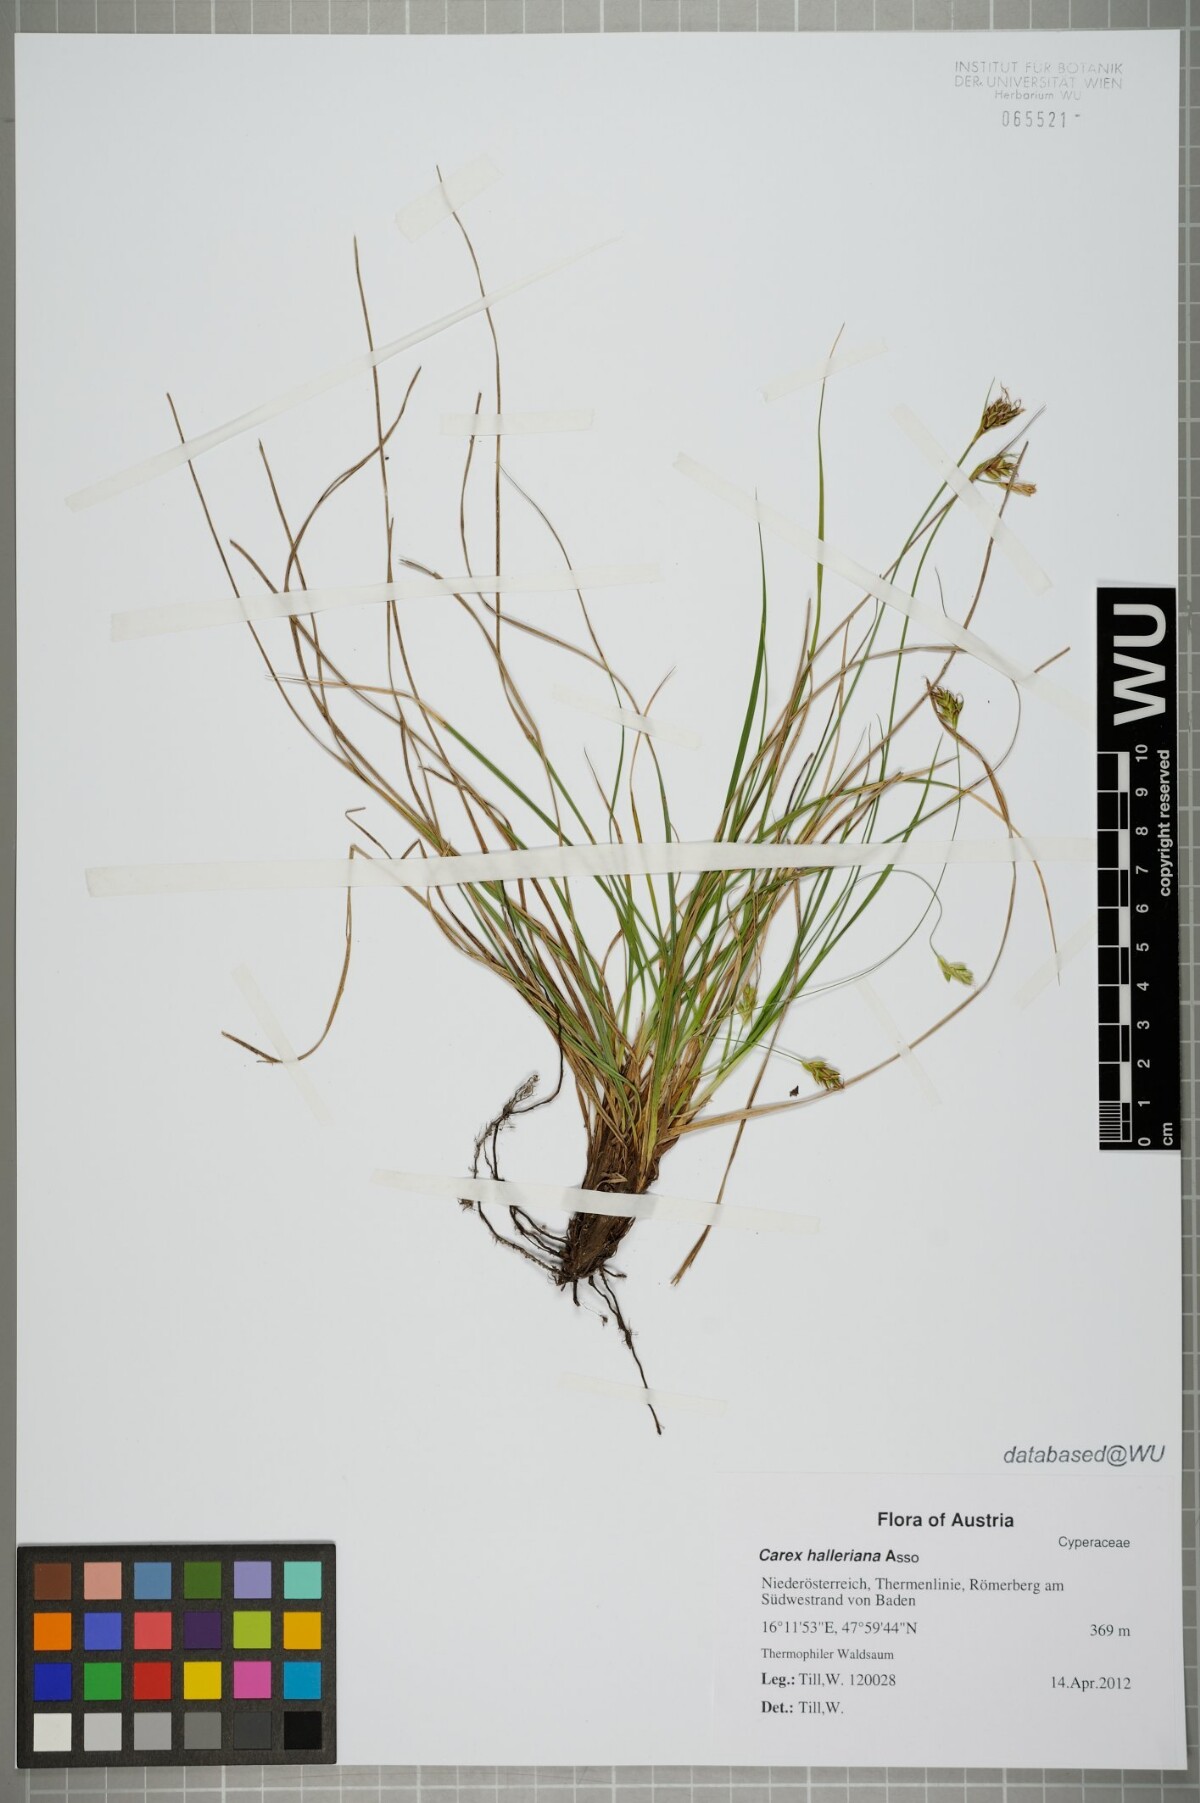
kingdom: Plantae
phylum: Tracheophyta
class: Liliopsida
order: Poales
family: Cyperaceae
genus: Carex
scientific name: Carex halleriana
